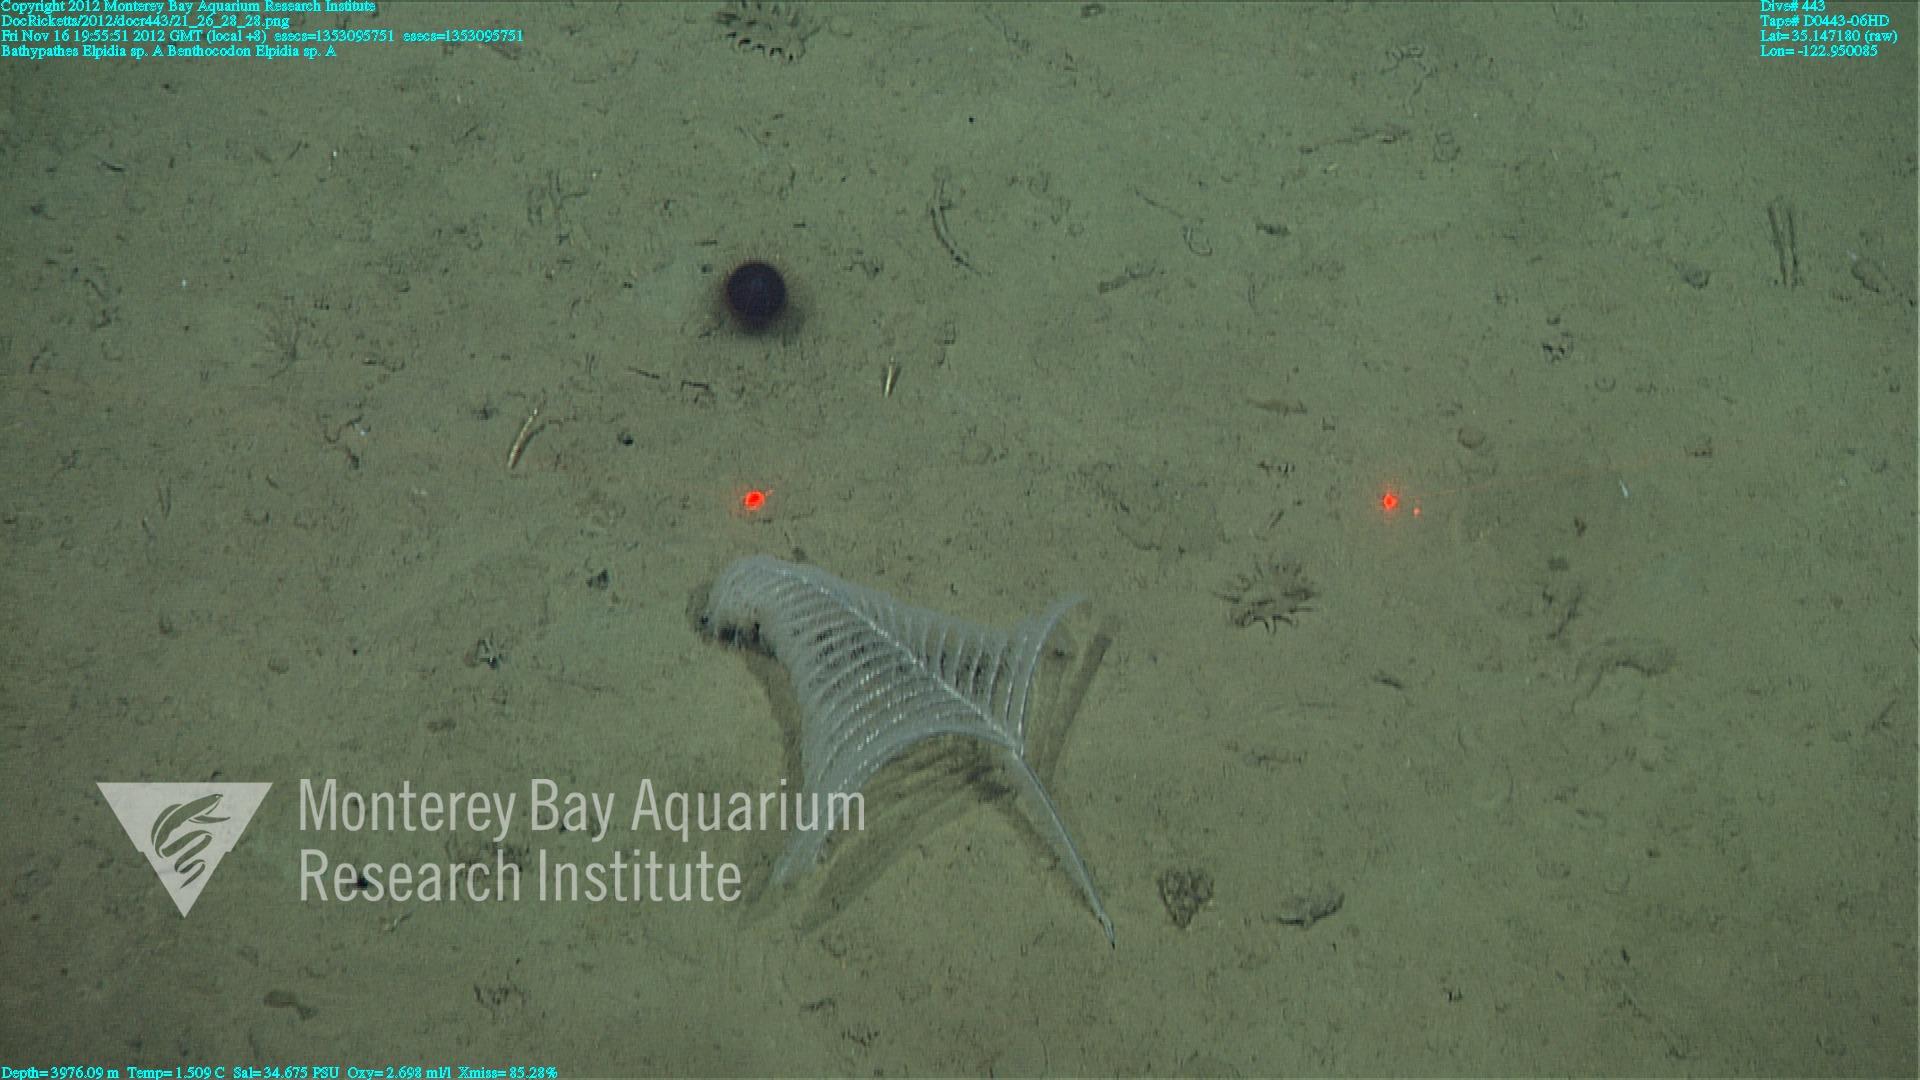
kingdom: Animalia
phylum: Cnidaria
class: Anthozoa
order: Antipatharia
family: Schizopathidae
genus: Bathypathes
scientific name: Bathypathes
